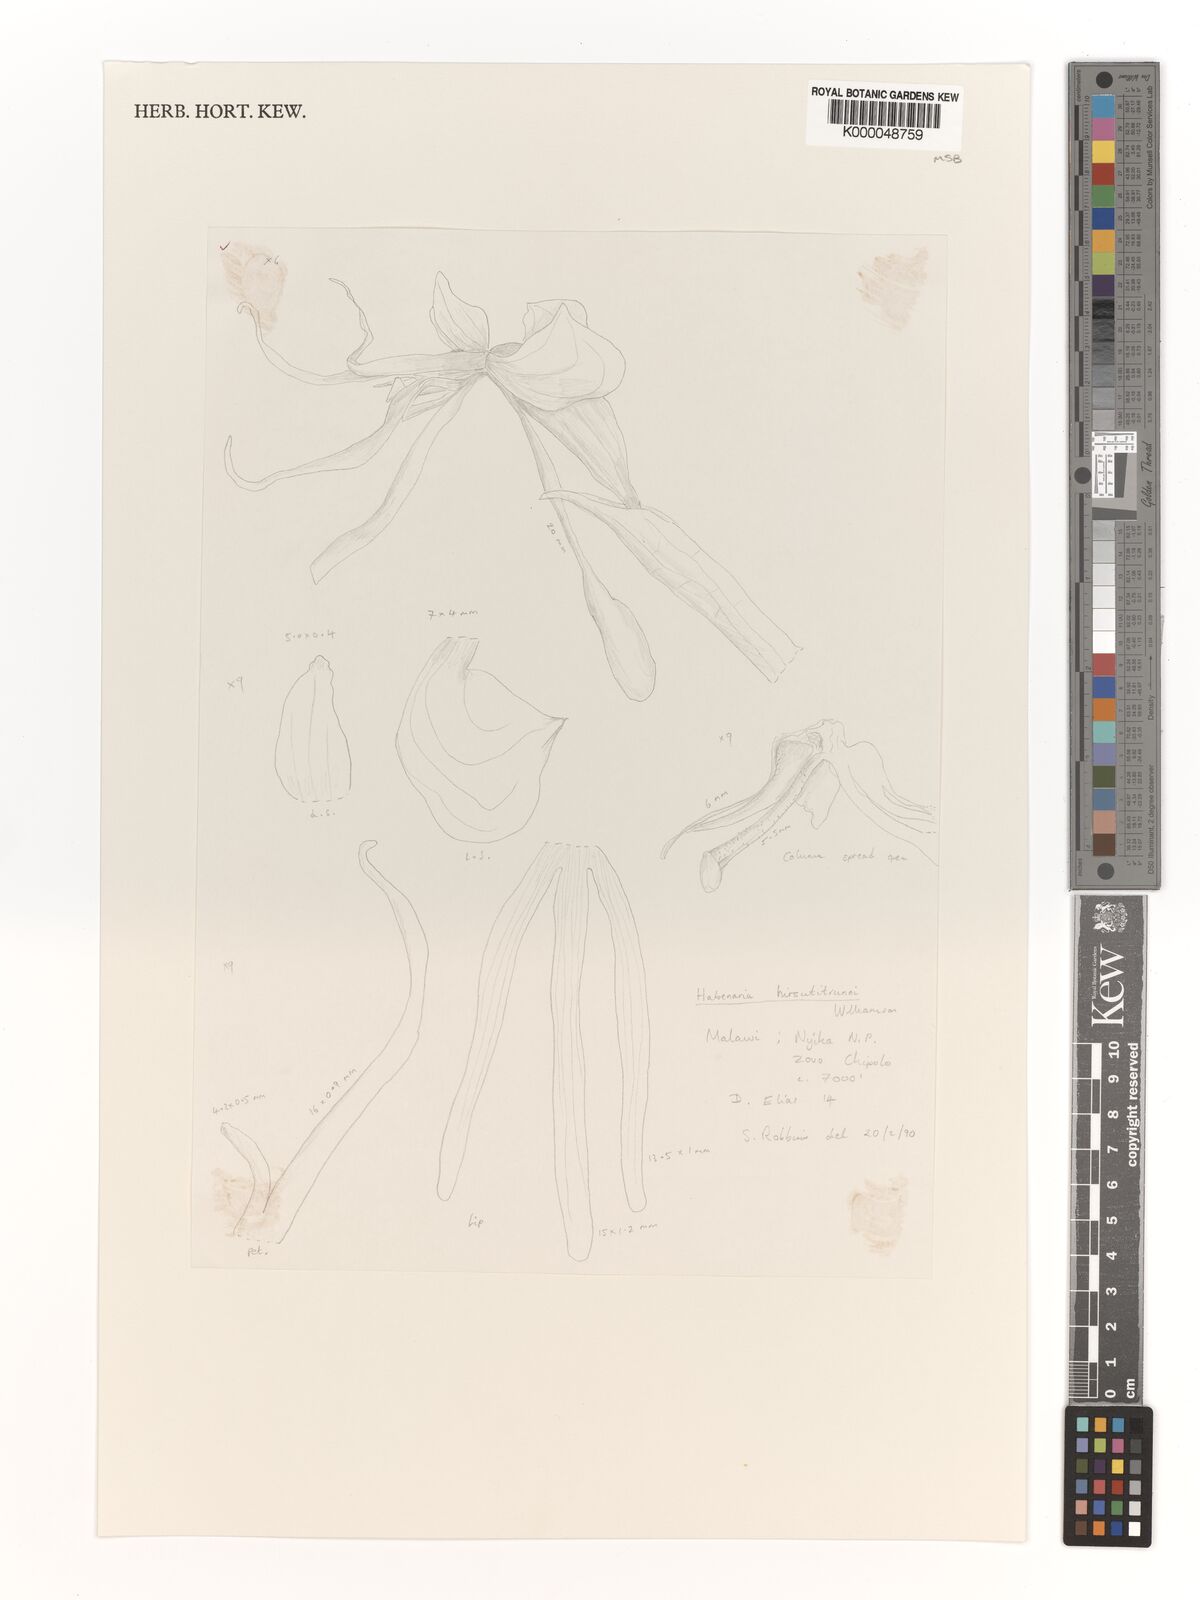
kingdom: Plantae
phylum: Tracheophyta
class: Liliopsida
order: Asparagales
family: Orchidaceae
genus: Habenaria
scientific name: Habenaria
